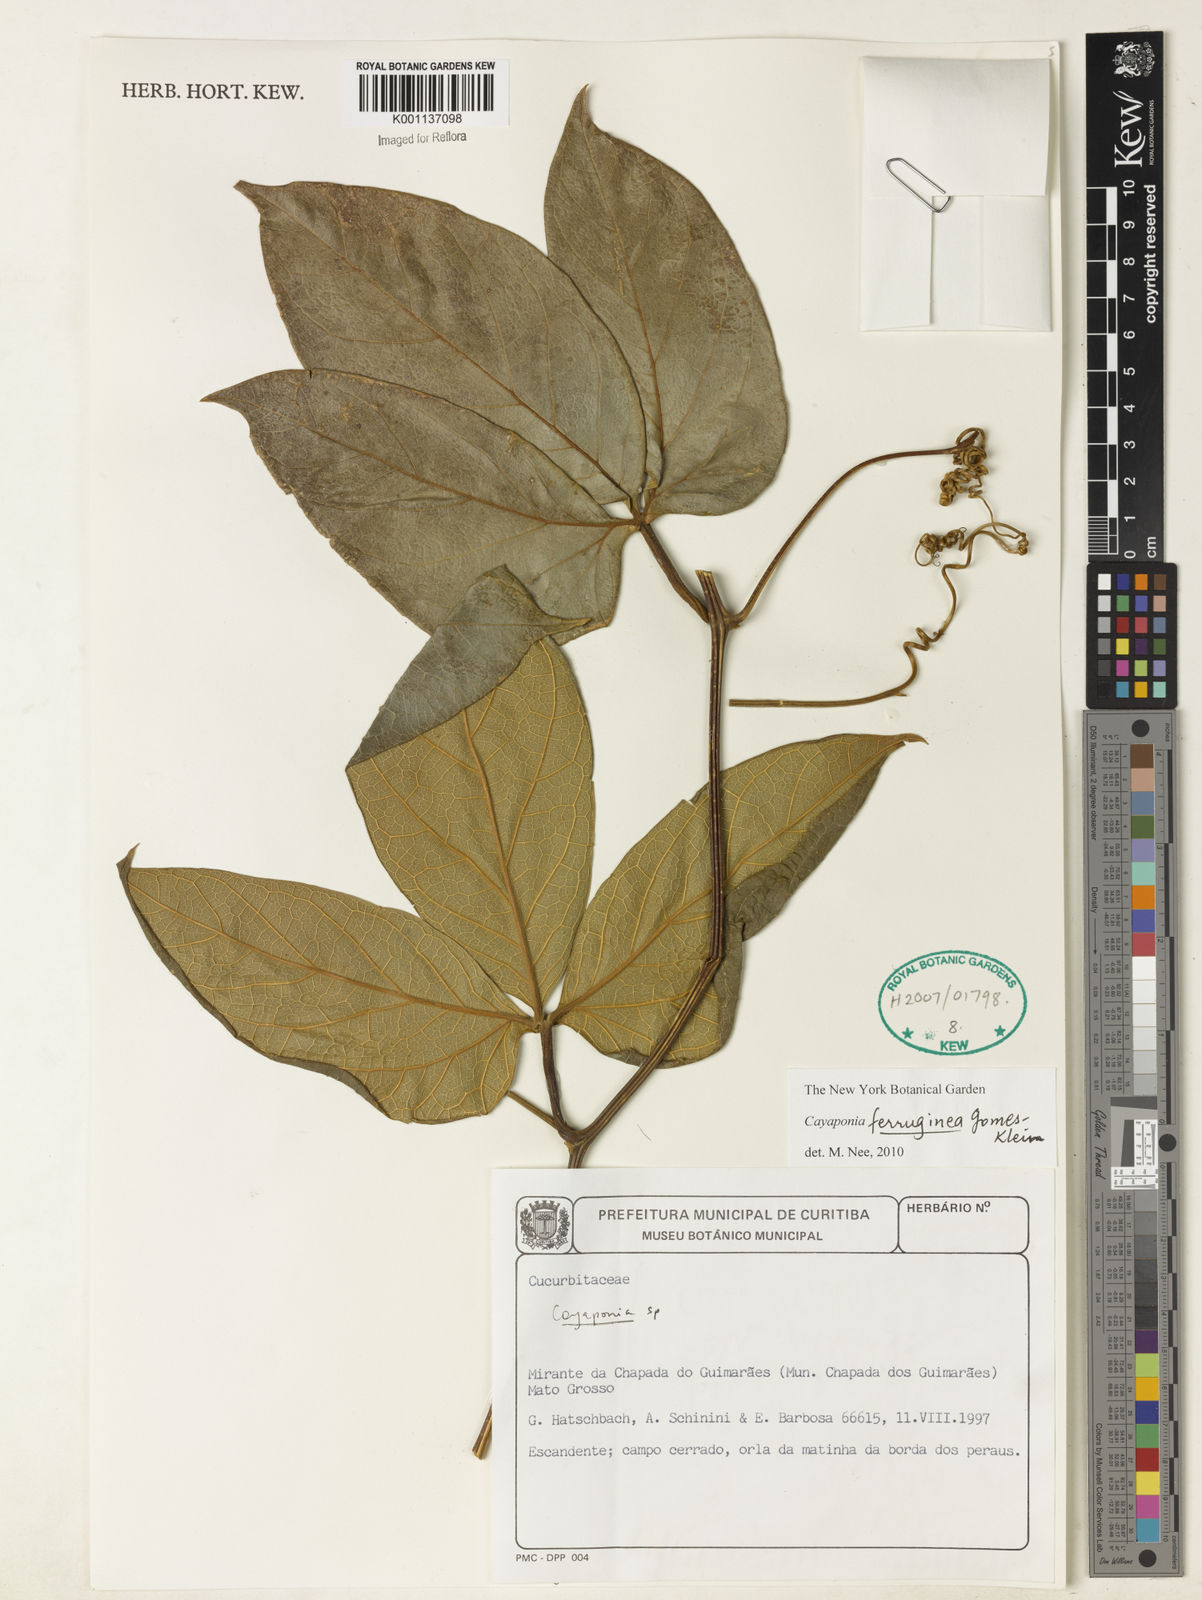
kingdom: Plantae
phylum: Tracheophyta
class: Magnoliopsida
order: Cucurbitales
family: Cucurbitaceae
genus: Cayaponia
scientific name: Cayaponia ferruginea
